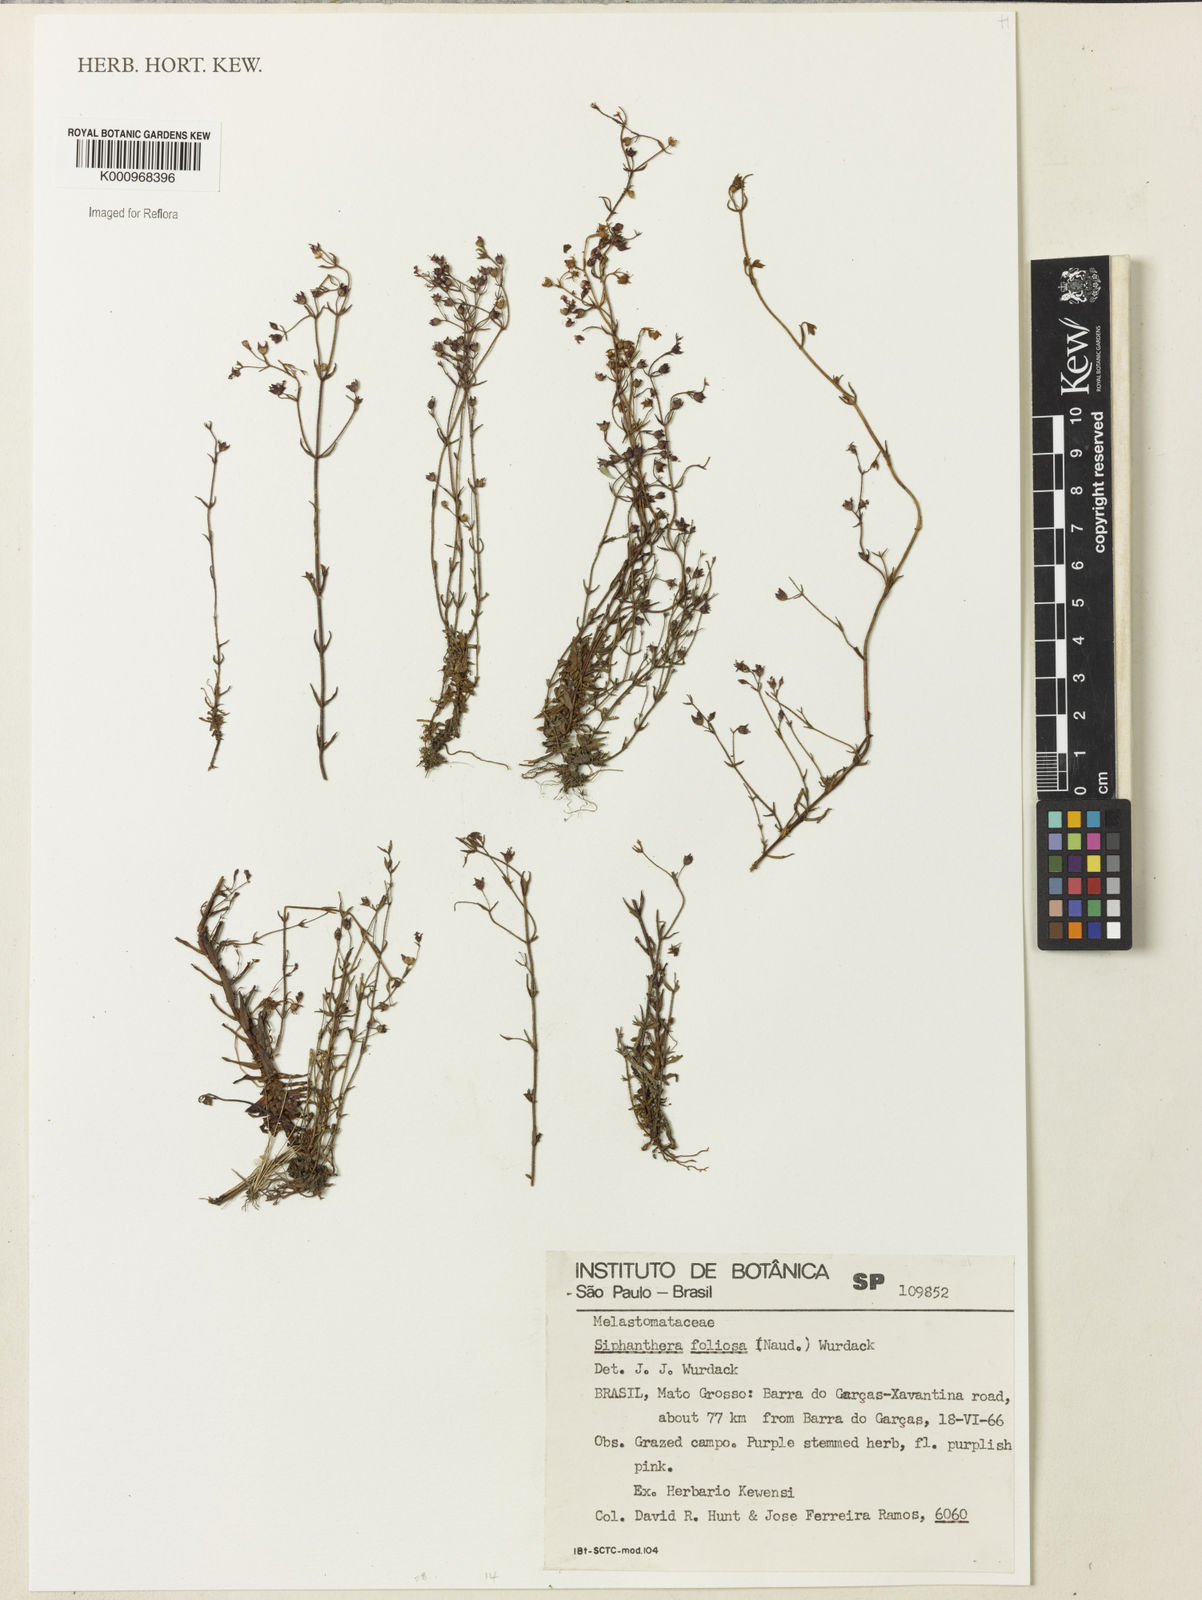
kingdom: Plantae
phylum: Tracheophyta
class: Magnoliopsida
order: Myrtales
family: Melastomataceae
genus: Siphanthera
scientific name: Siphanthera foliosa
